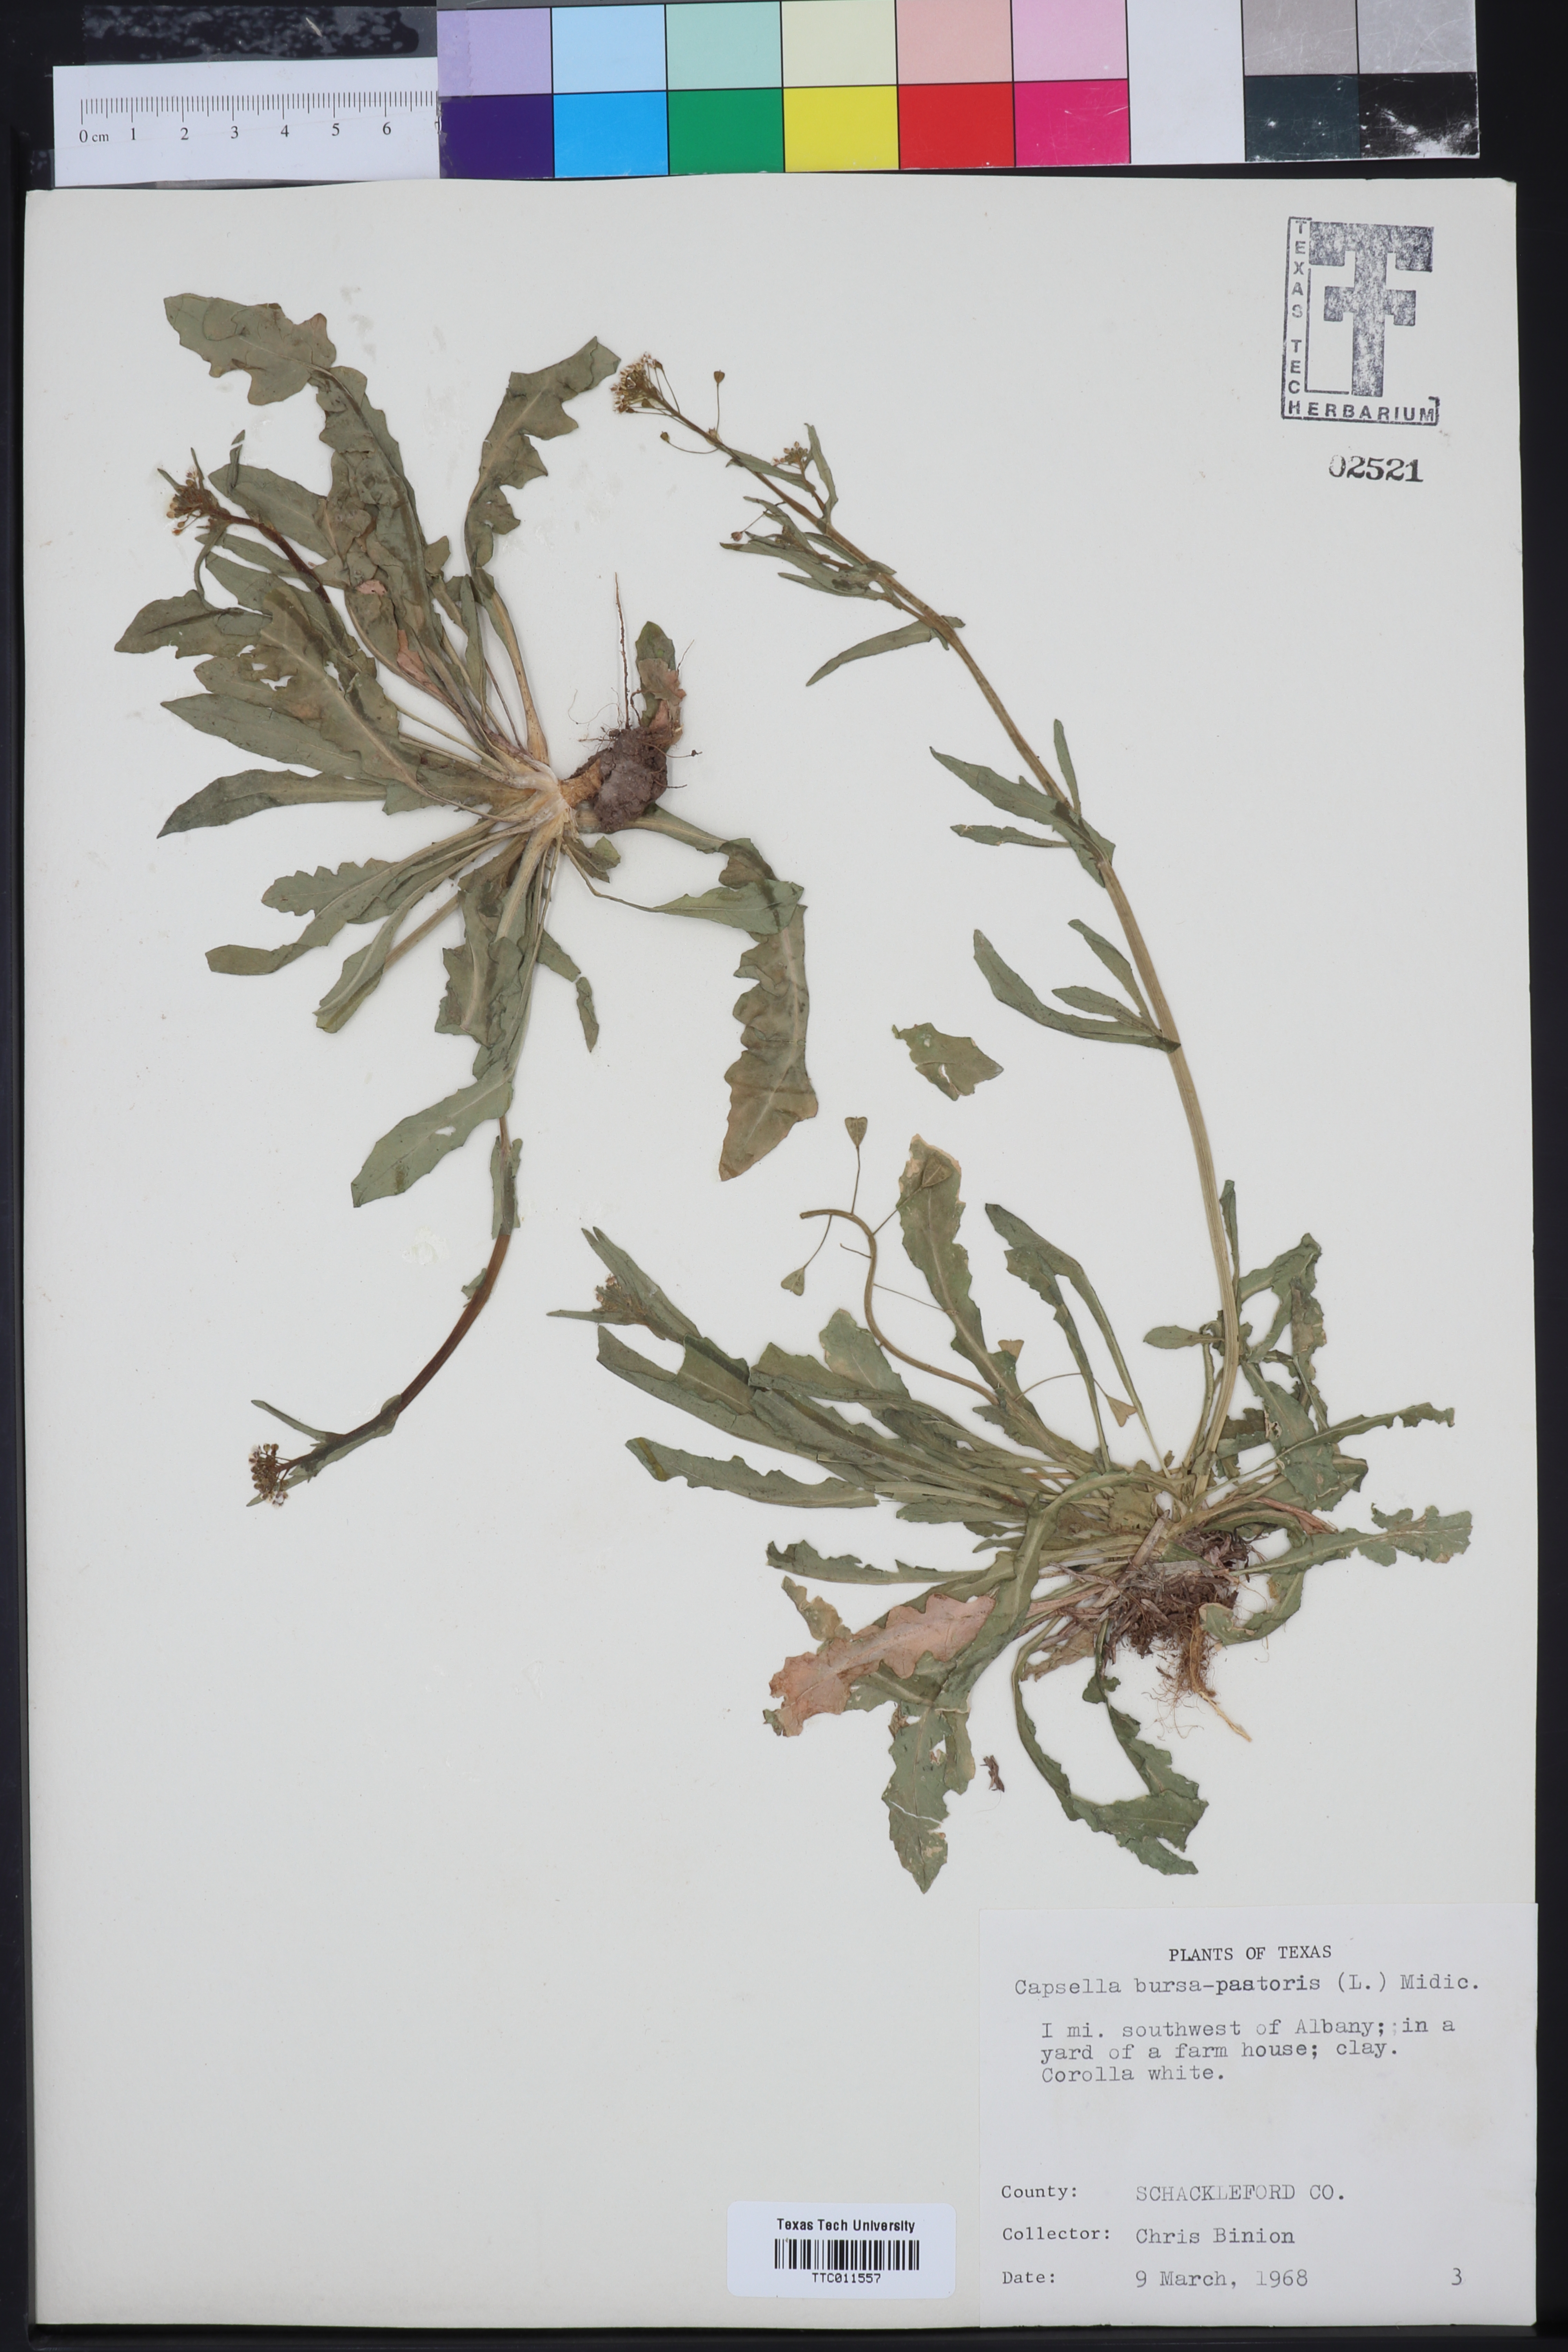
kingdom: Plantae
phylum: Tracheophyta
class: Magnoliopsida
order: Brassicales
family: Brassicaceae
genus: Capsella
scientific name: Capsella bursa-pastoris
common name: Shepherd's purse
